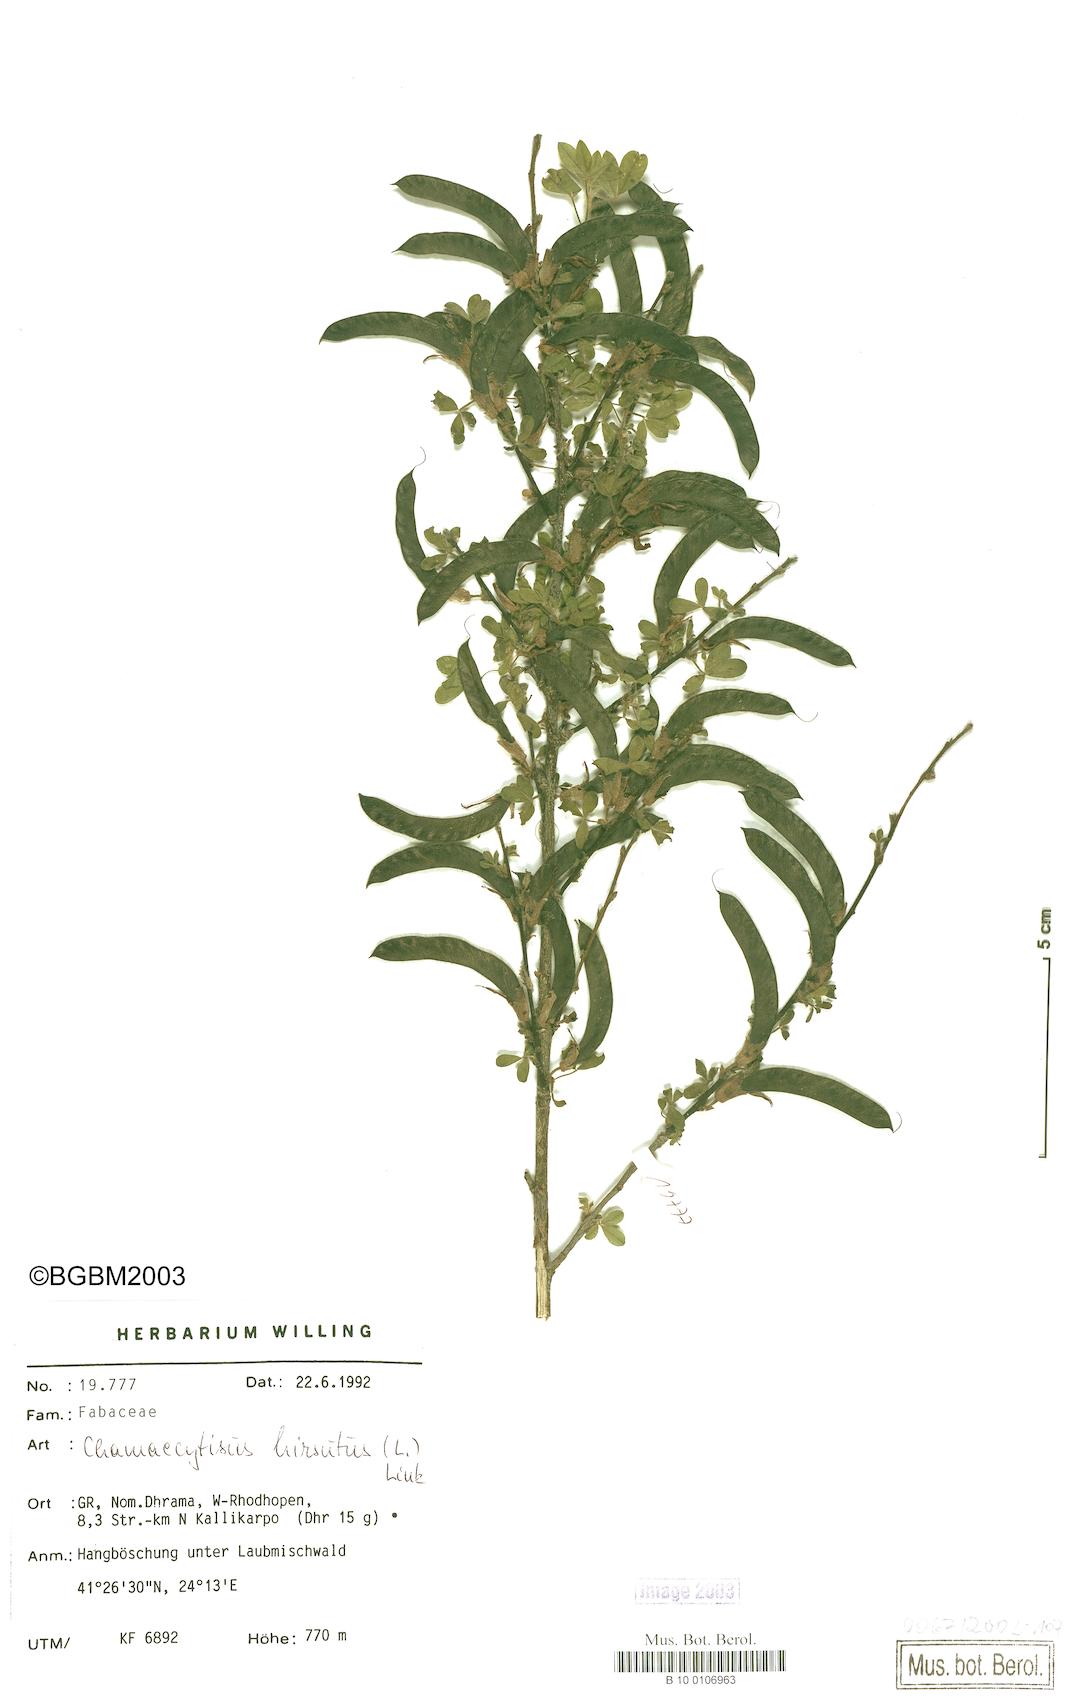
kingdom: Plantae
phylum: Tracheophyta
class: Magnoliopsida
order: Fabales
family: Fabaceae
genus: Chamaecytisus
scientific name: Chamaecytisus hirsutus
